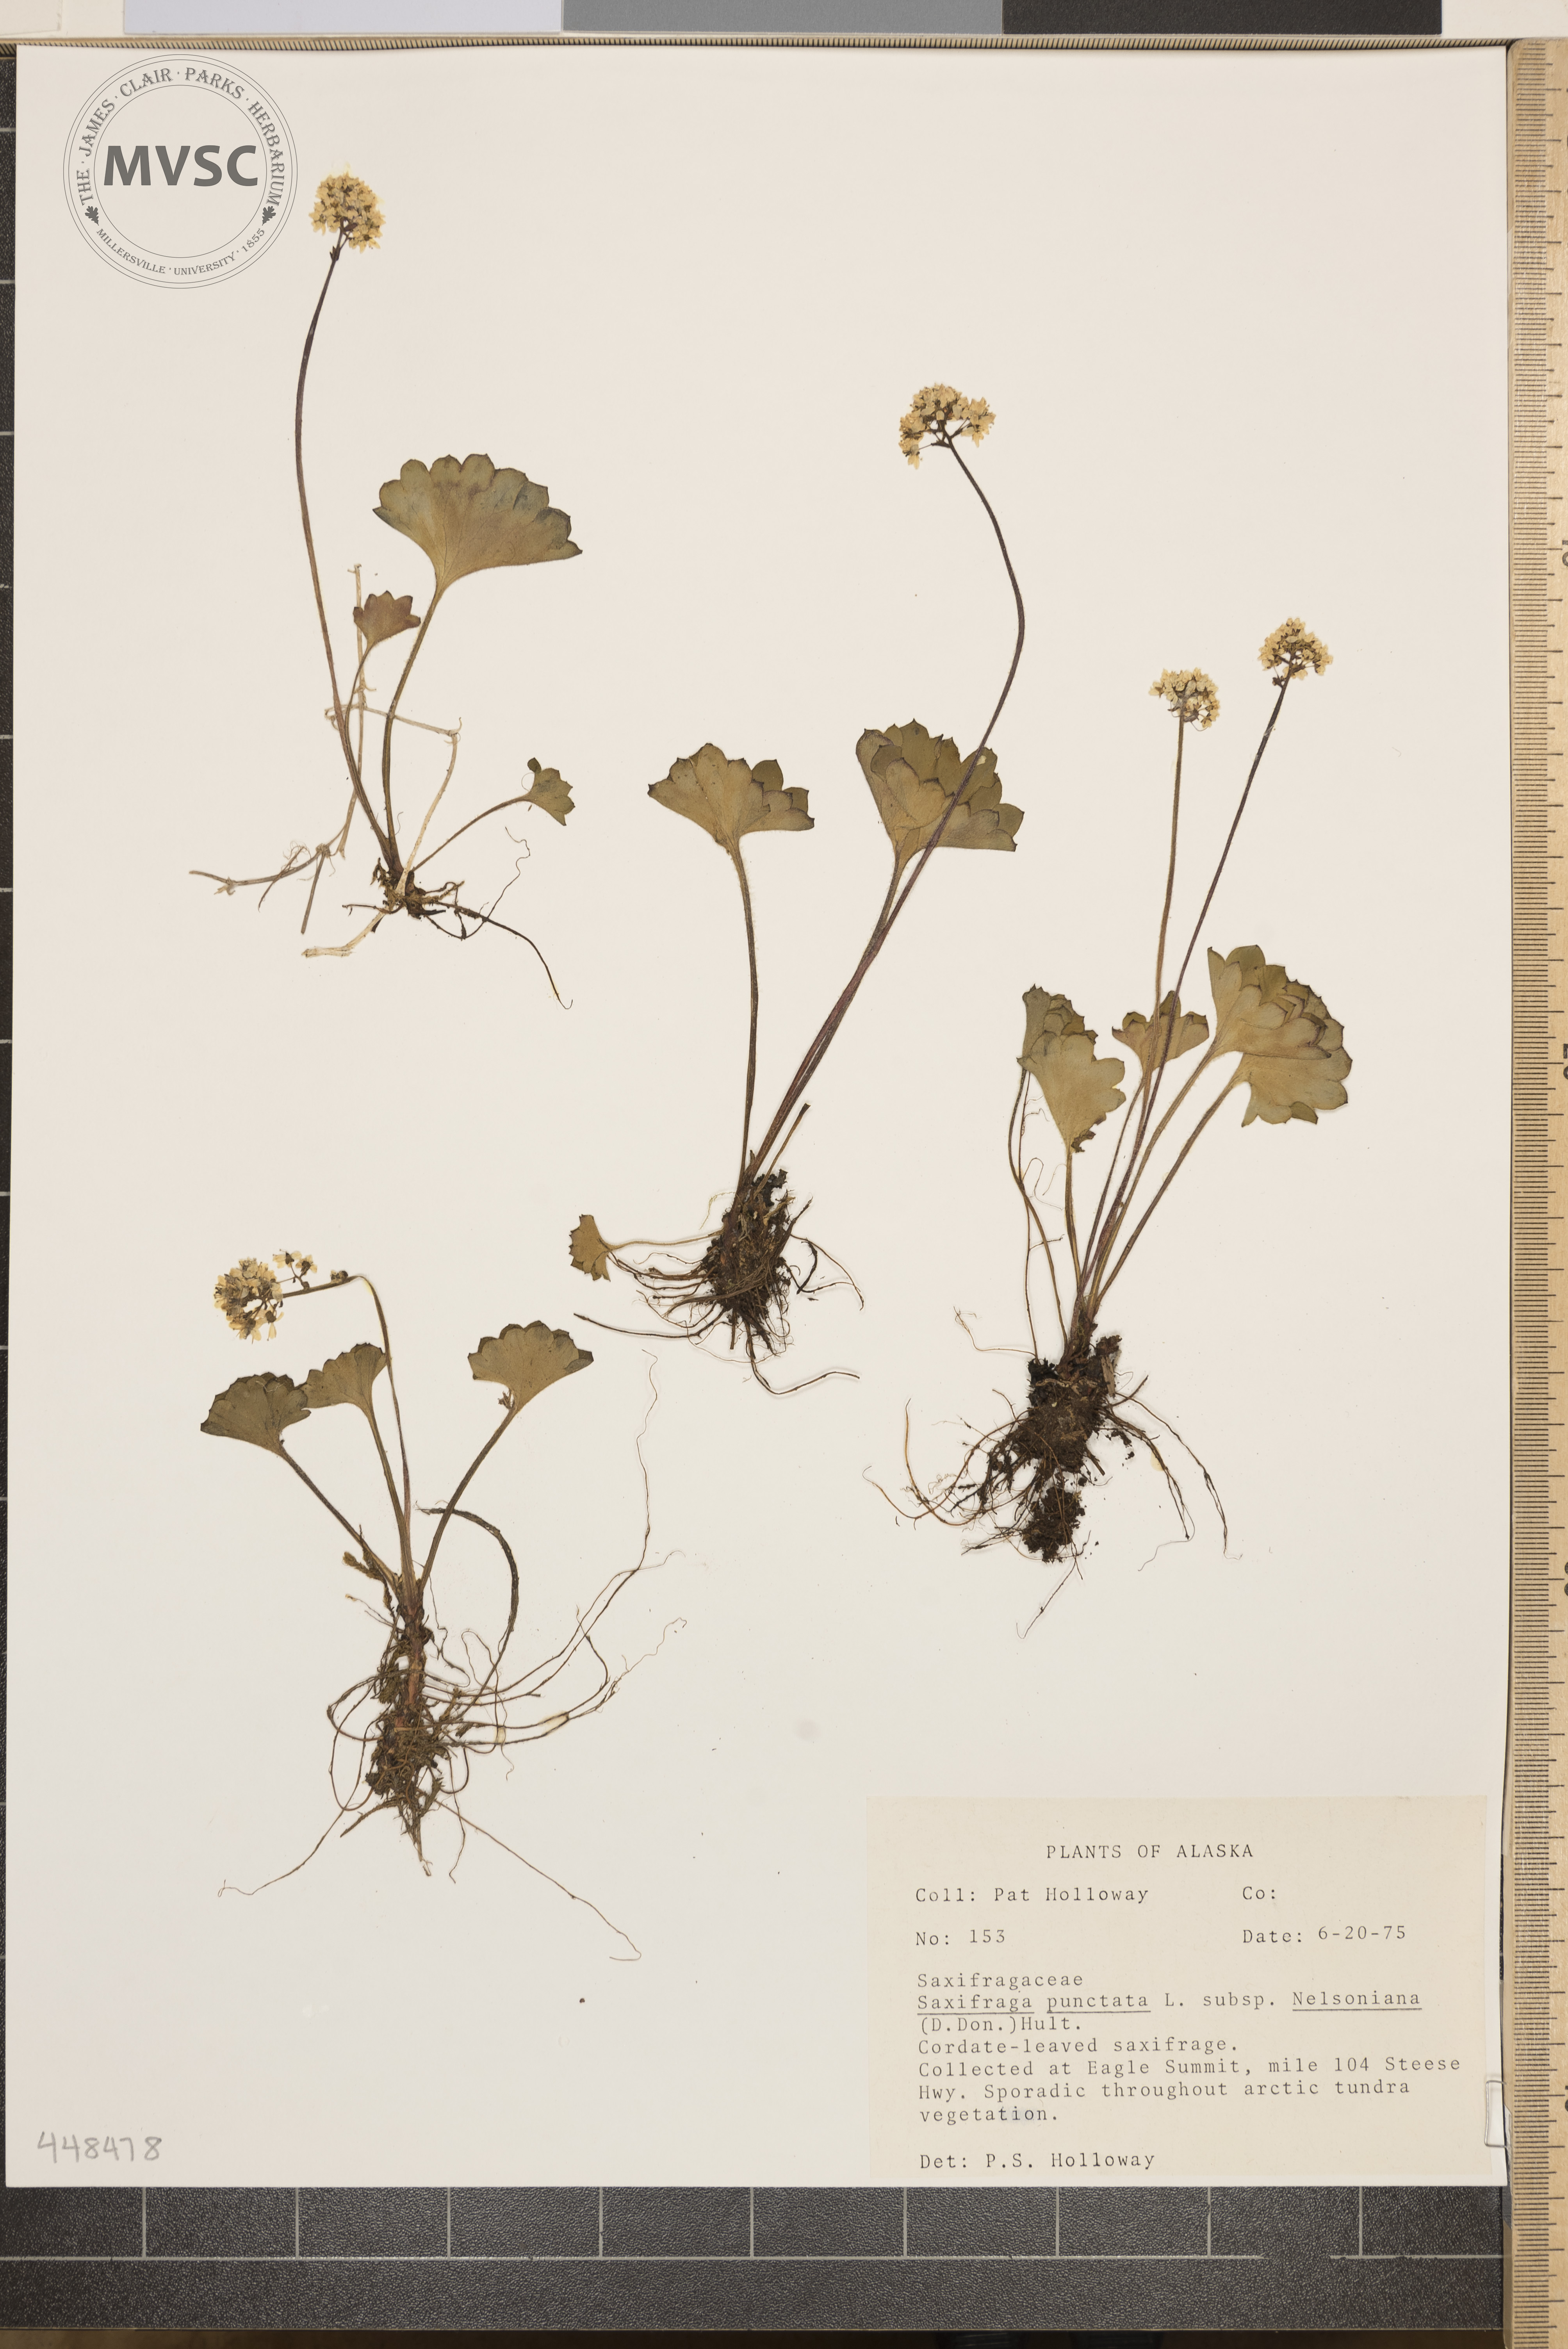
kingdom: Plantae
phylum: Tracheophyta
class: Magnoliopsida
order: Saxifragales
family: Saxifragaceae
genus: Micranthes
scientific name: Micranthes punctata
